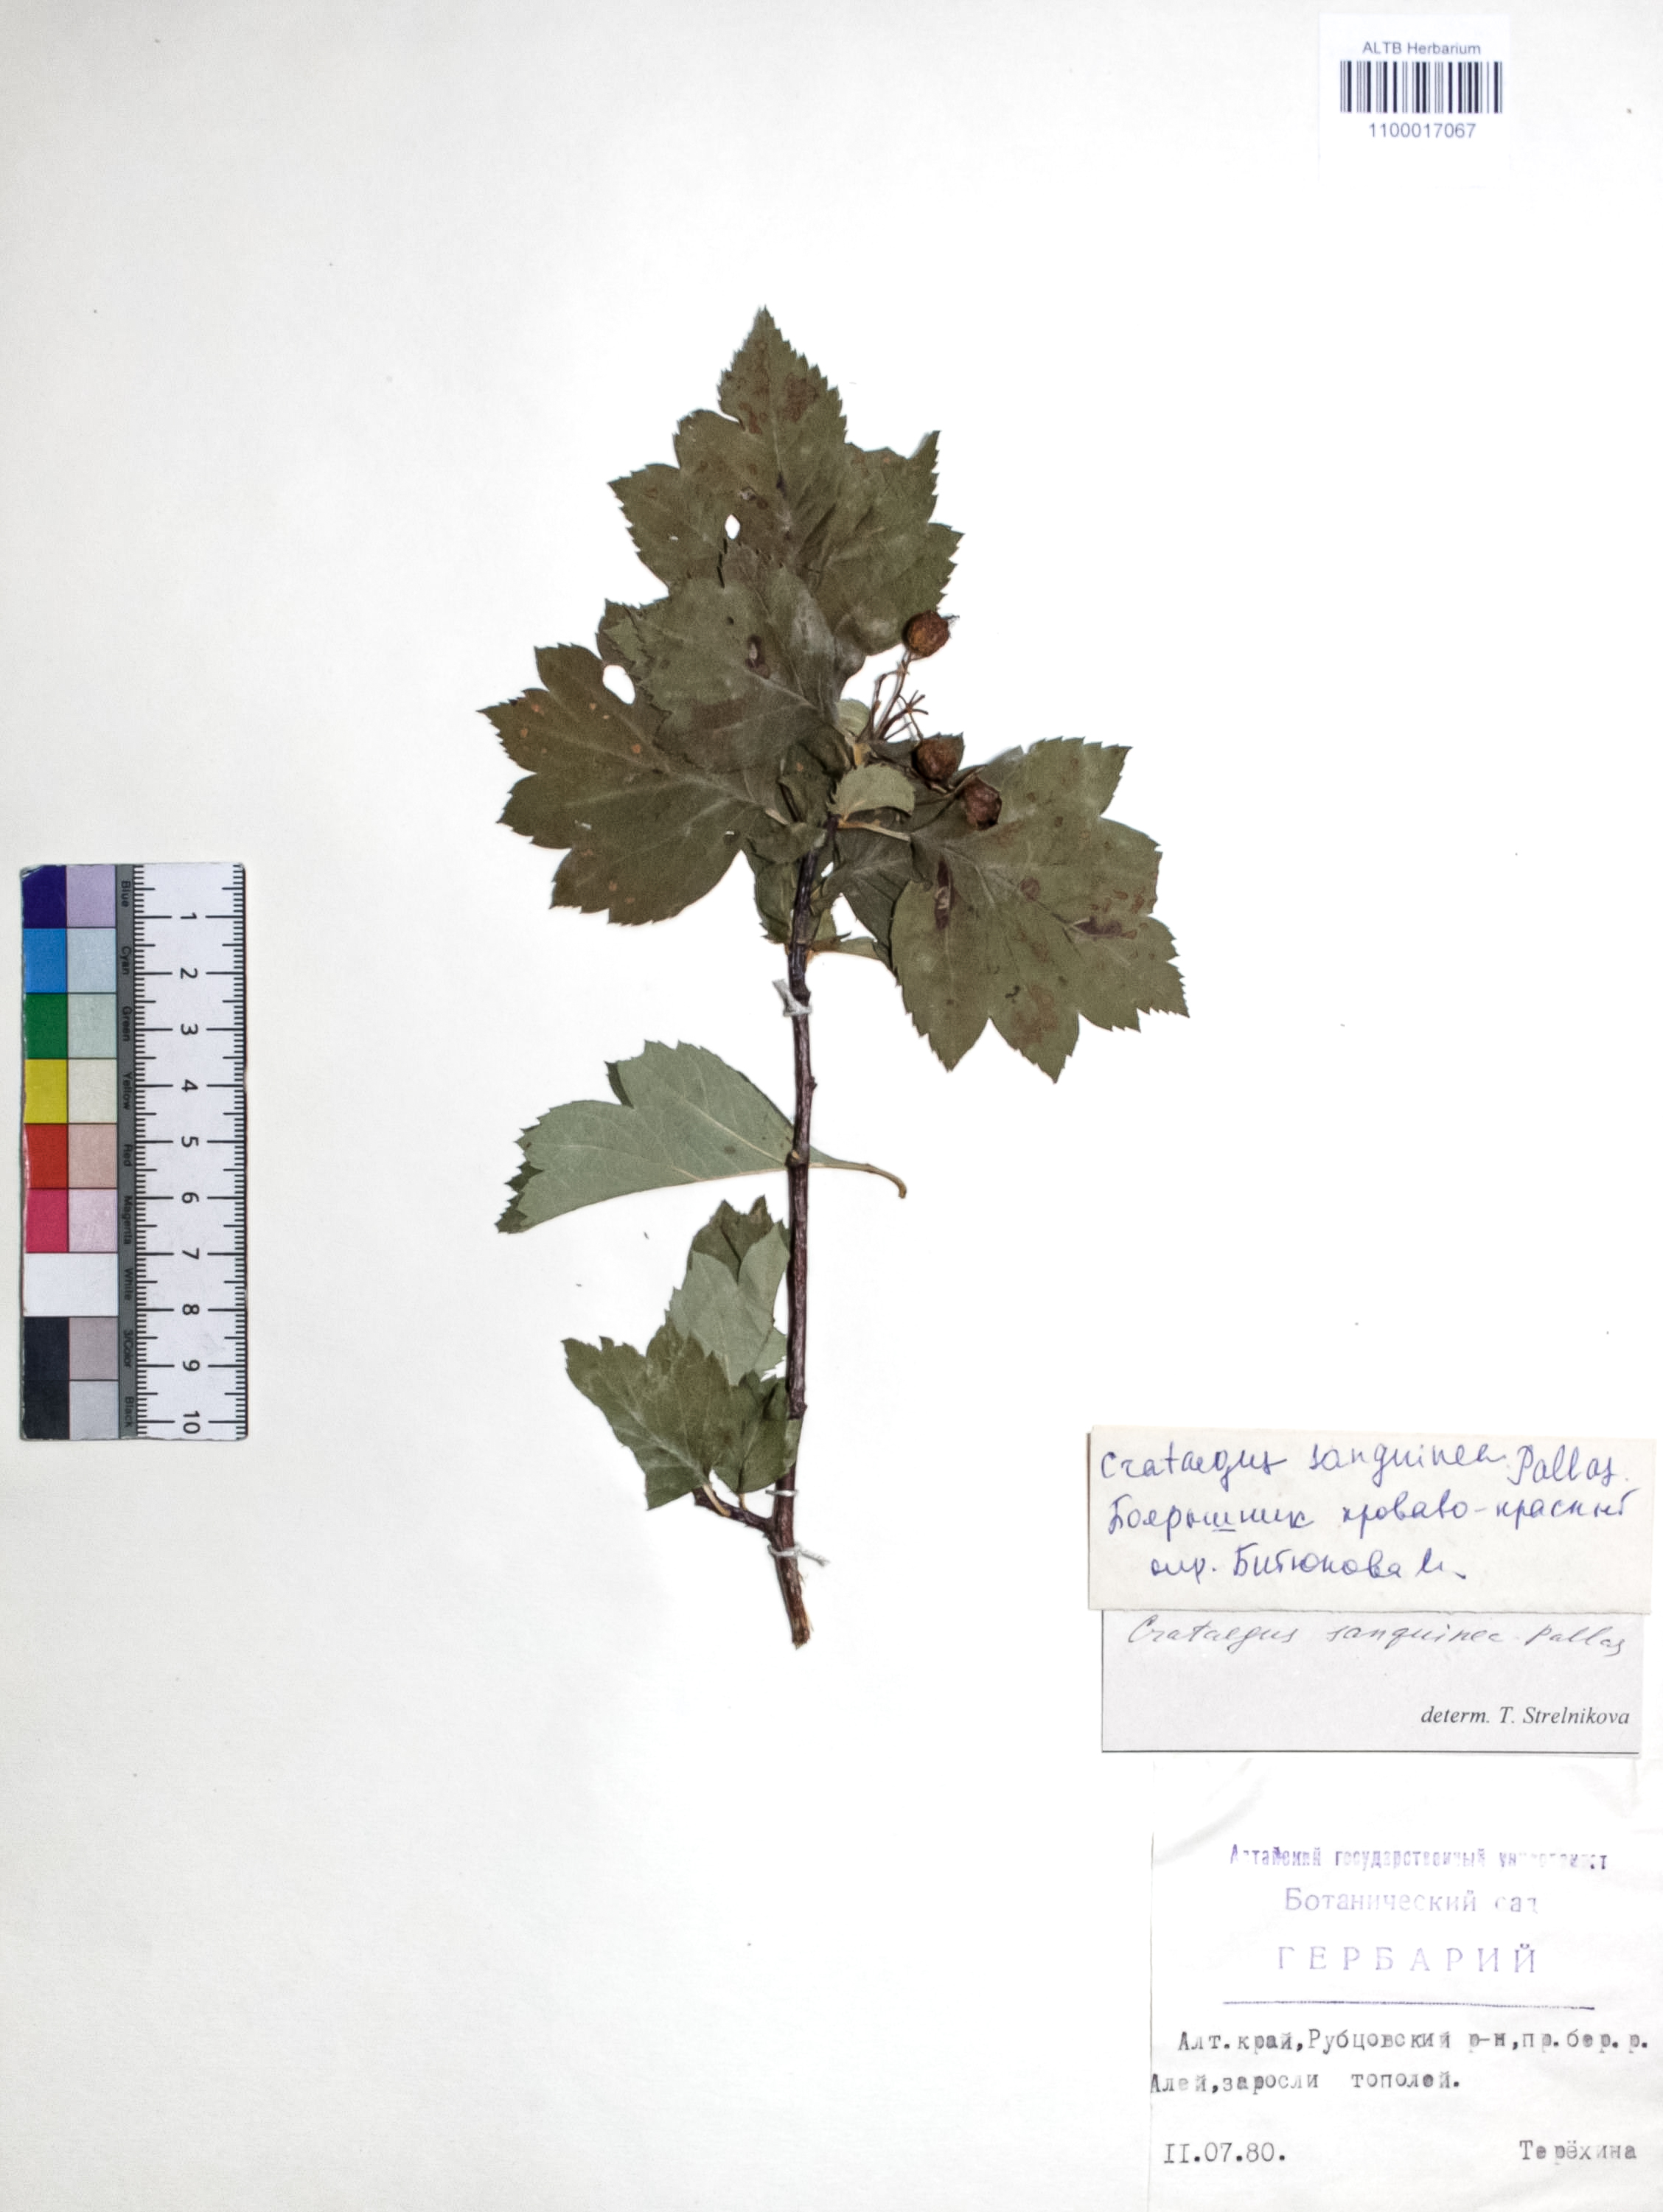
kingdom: Plantae
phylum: Tracheophyta
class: Magnoliopsida
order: Rosales
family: Rosaceae
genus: Crataegus
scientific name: Crataegus sanguinea
